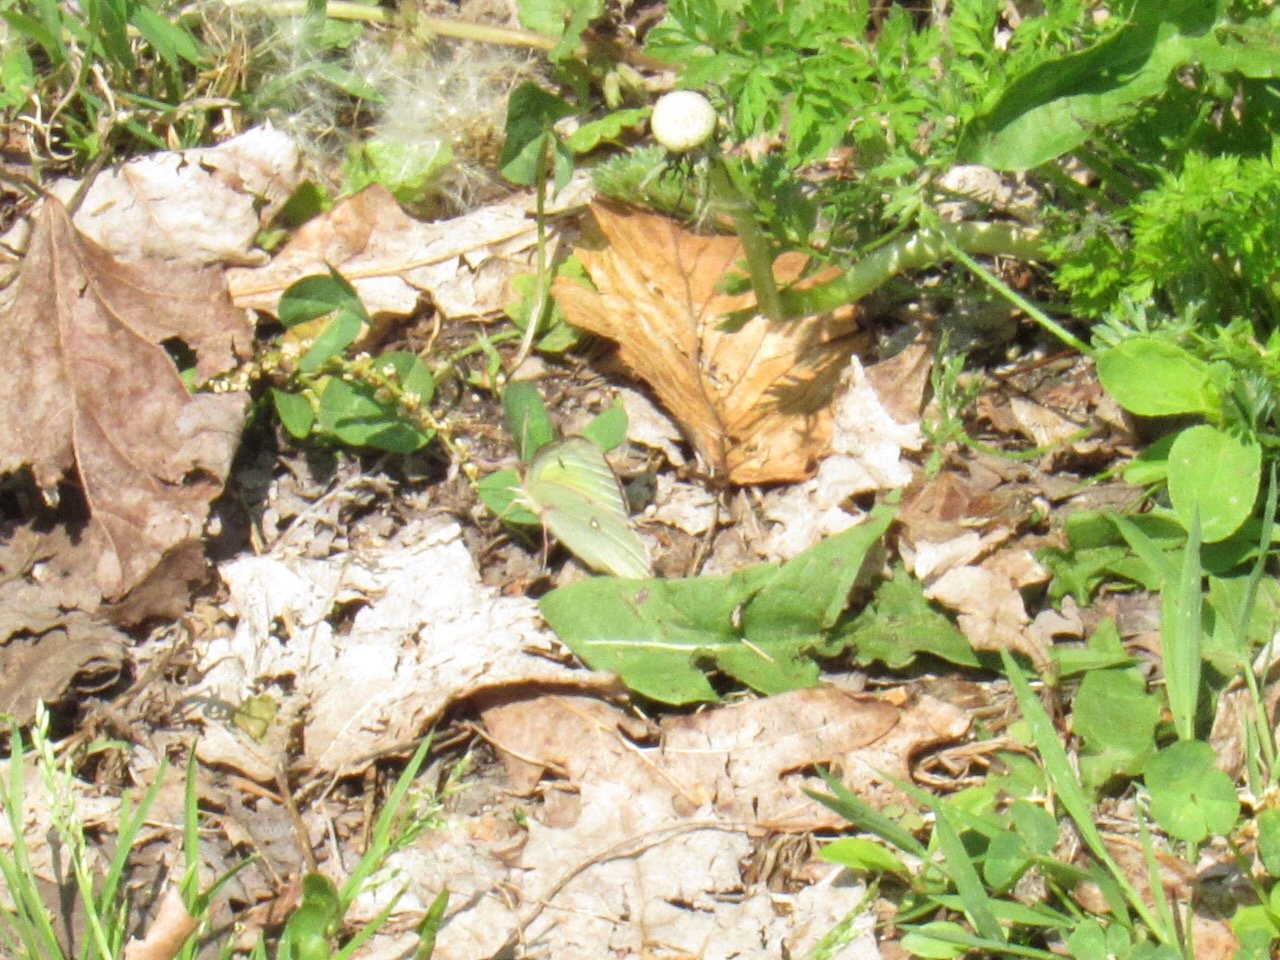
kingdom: Animalia
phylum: Arthropoda
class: Insecta
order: Lepidoptera
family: Pieridae
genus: Colias
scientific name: Colias philodice
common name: Clouded Sulphur
